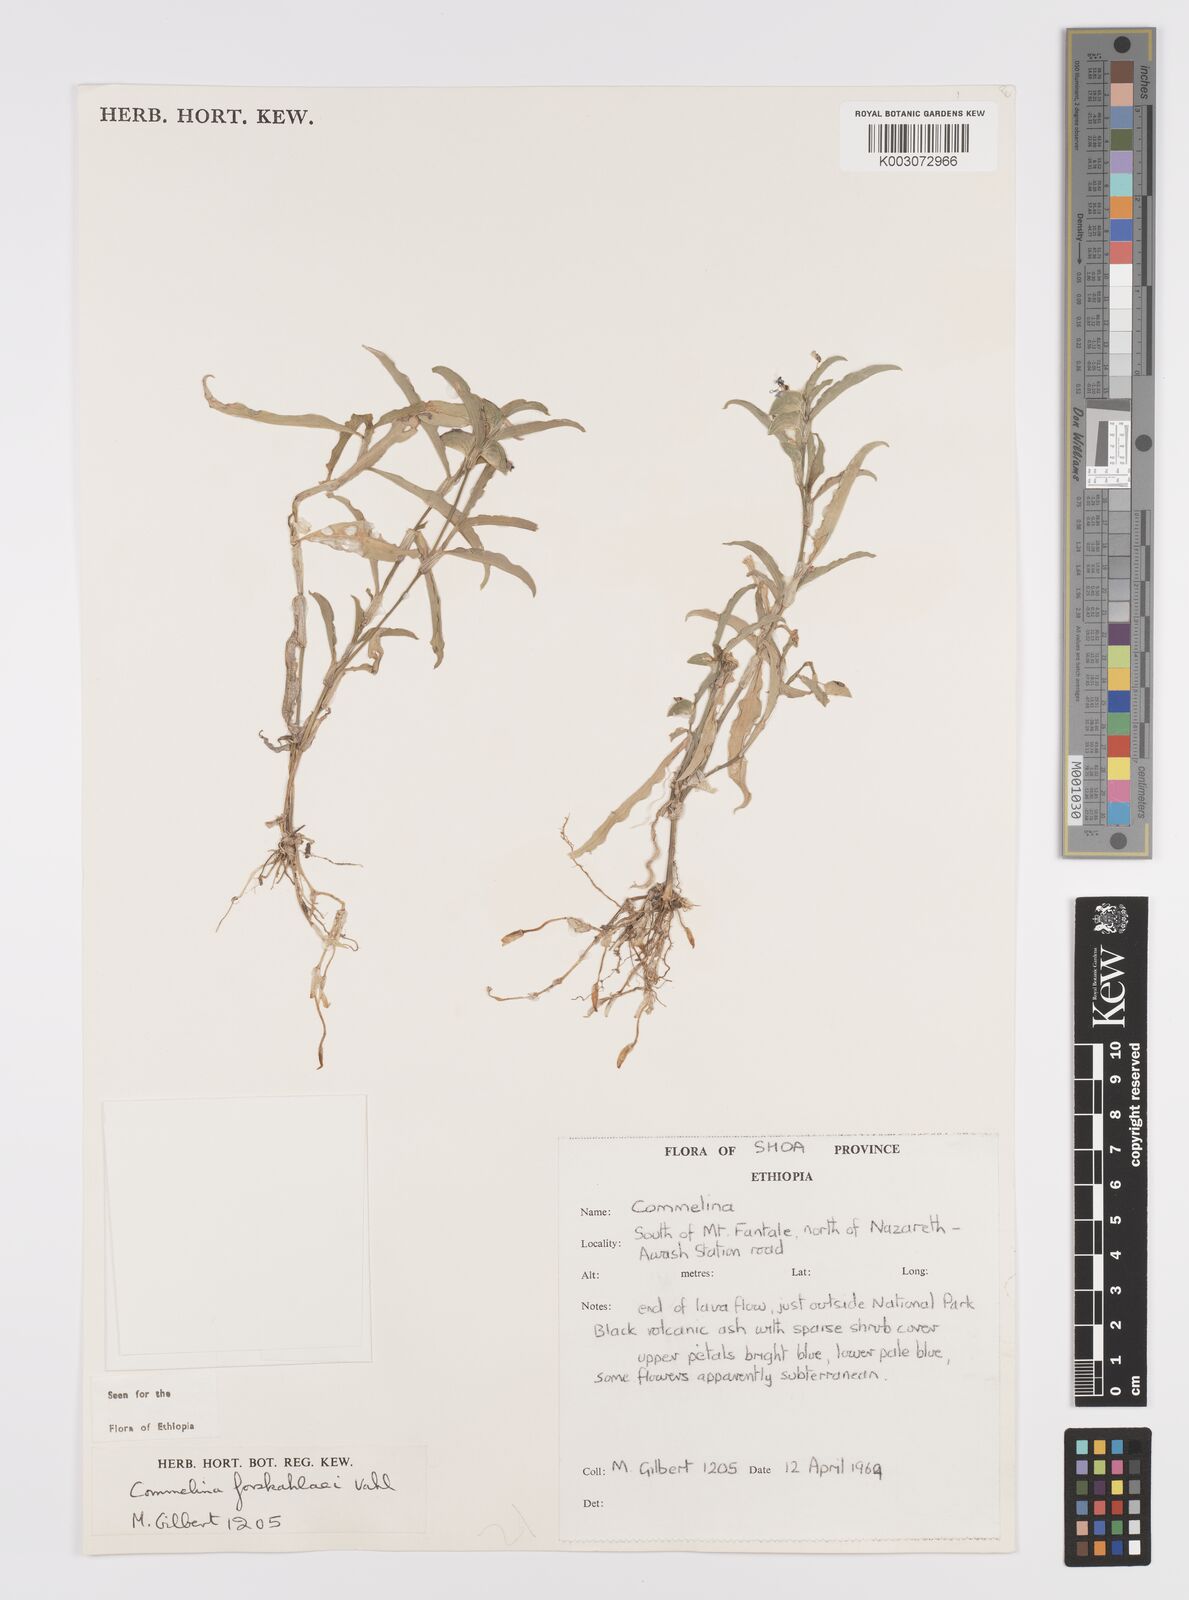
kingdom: Plantae
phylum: Tracheophyta
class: Liliopsida
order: Commelinales
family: Commelinaceae
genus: Commelina
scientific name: Commelina forskaolii
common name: Rat's ear
